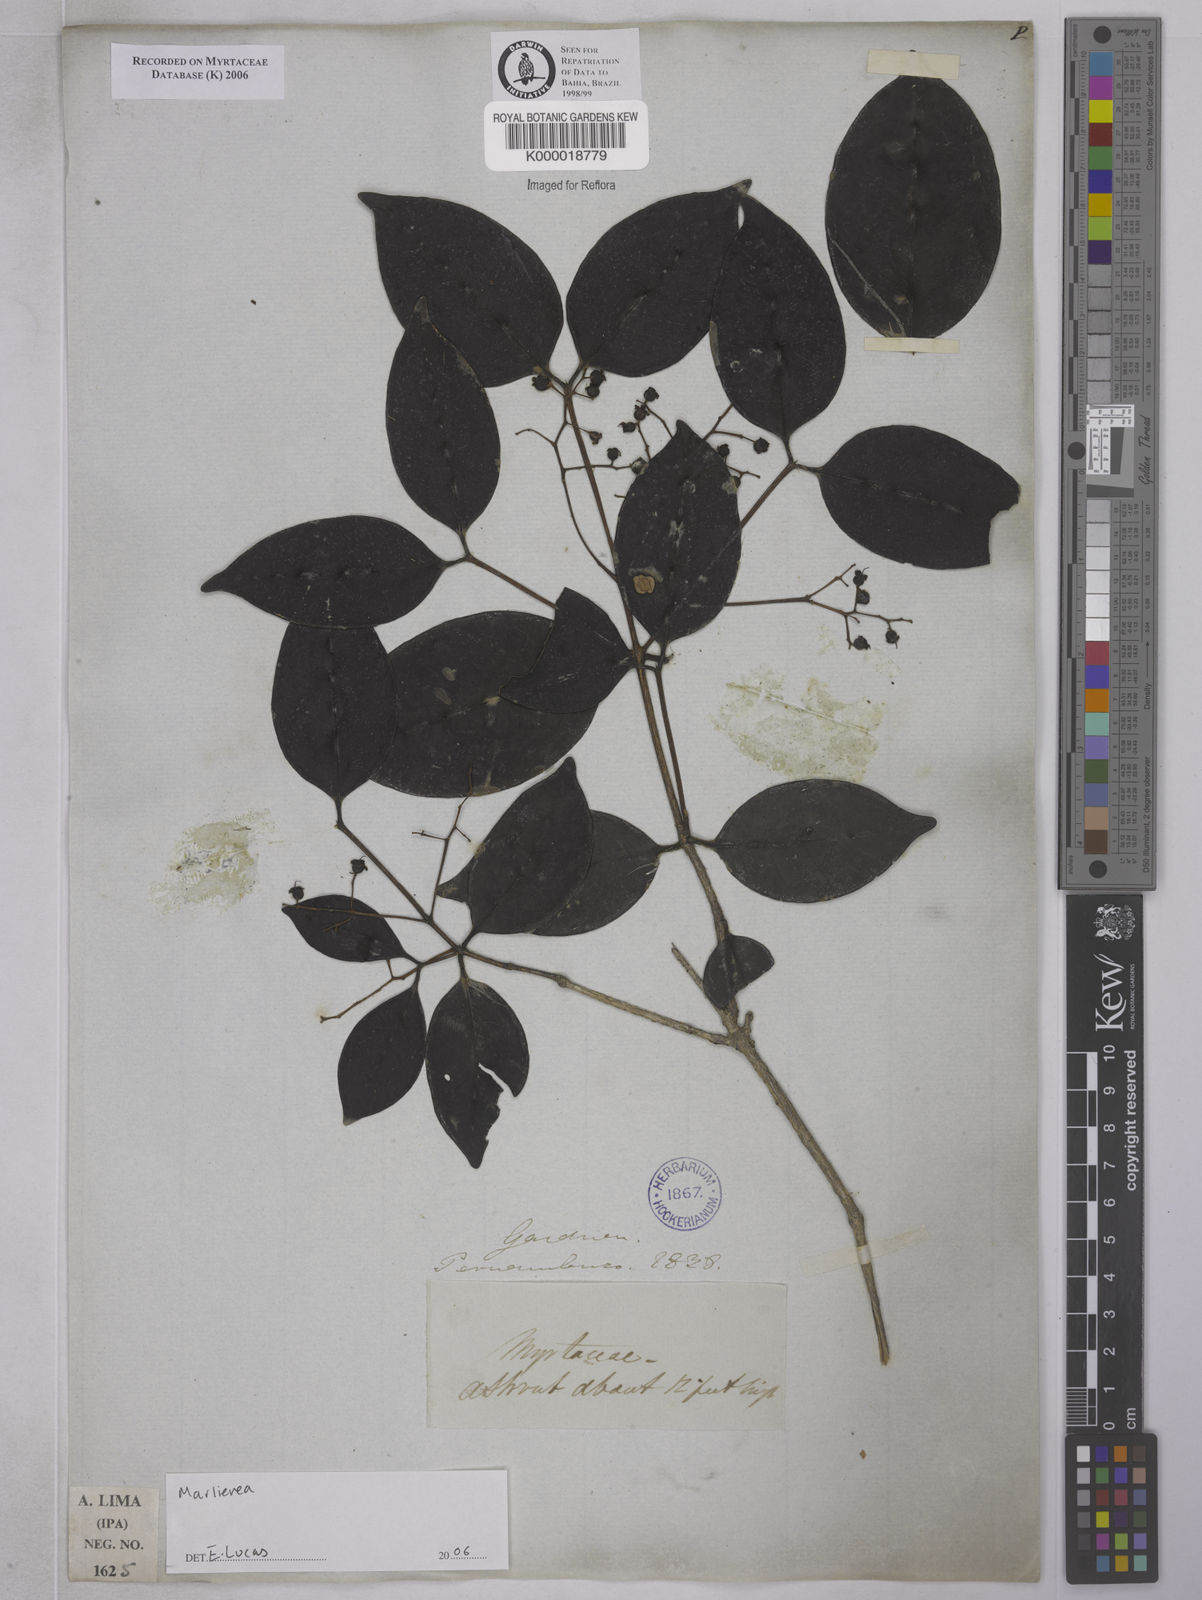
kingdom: Plantae
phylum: Tracheophyta
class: Magnoliopsida
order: Myrtales
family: Myrtaceae
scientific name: Myrtaceae
